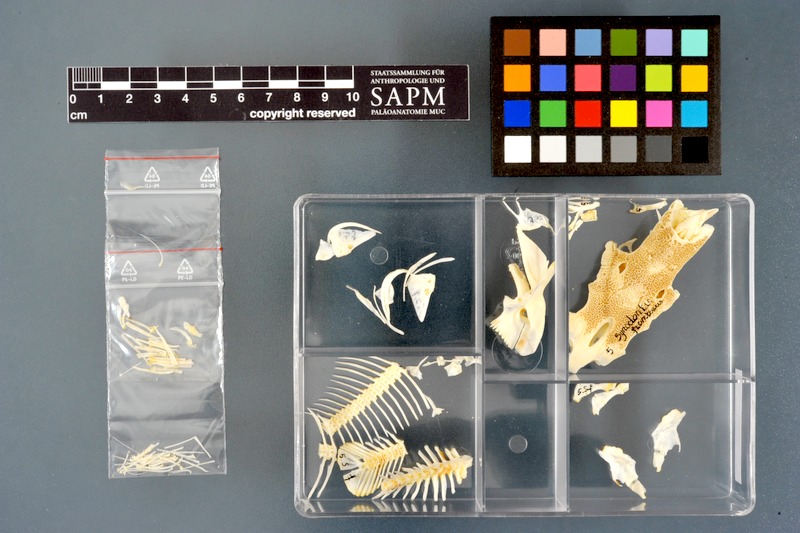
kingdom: Animalia
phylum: Chordata
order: Siluriformes
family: Mochokidae
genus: Synodontis
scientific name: Synodontis frontosus
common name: Sudan squeaker
